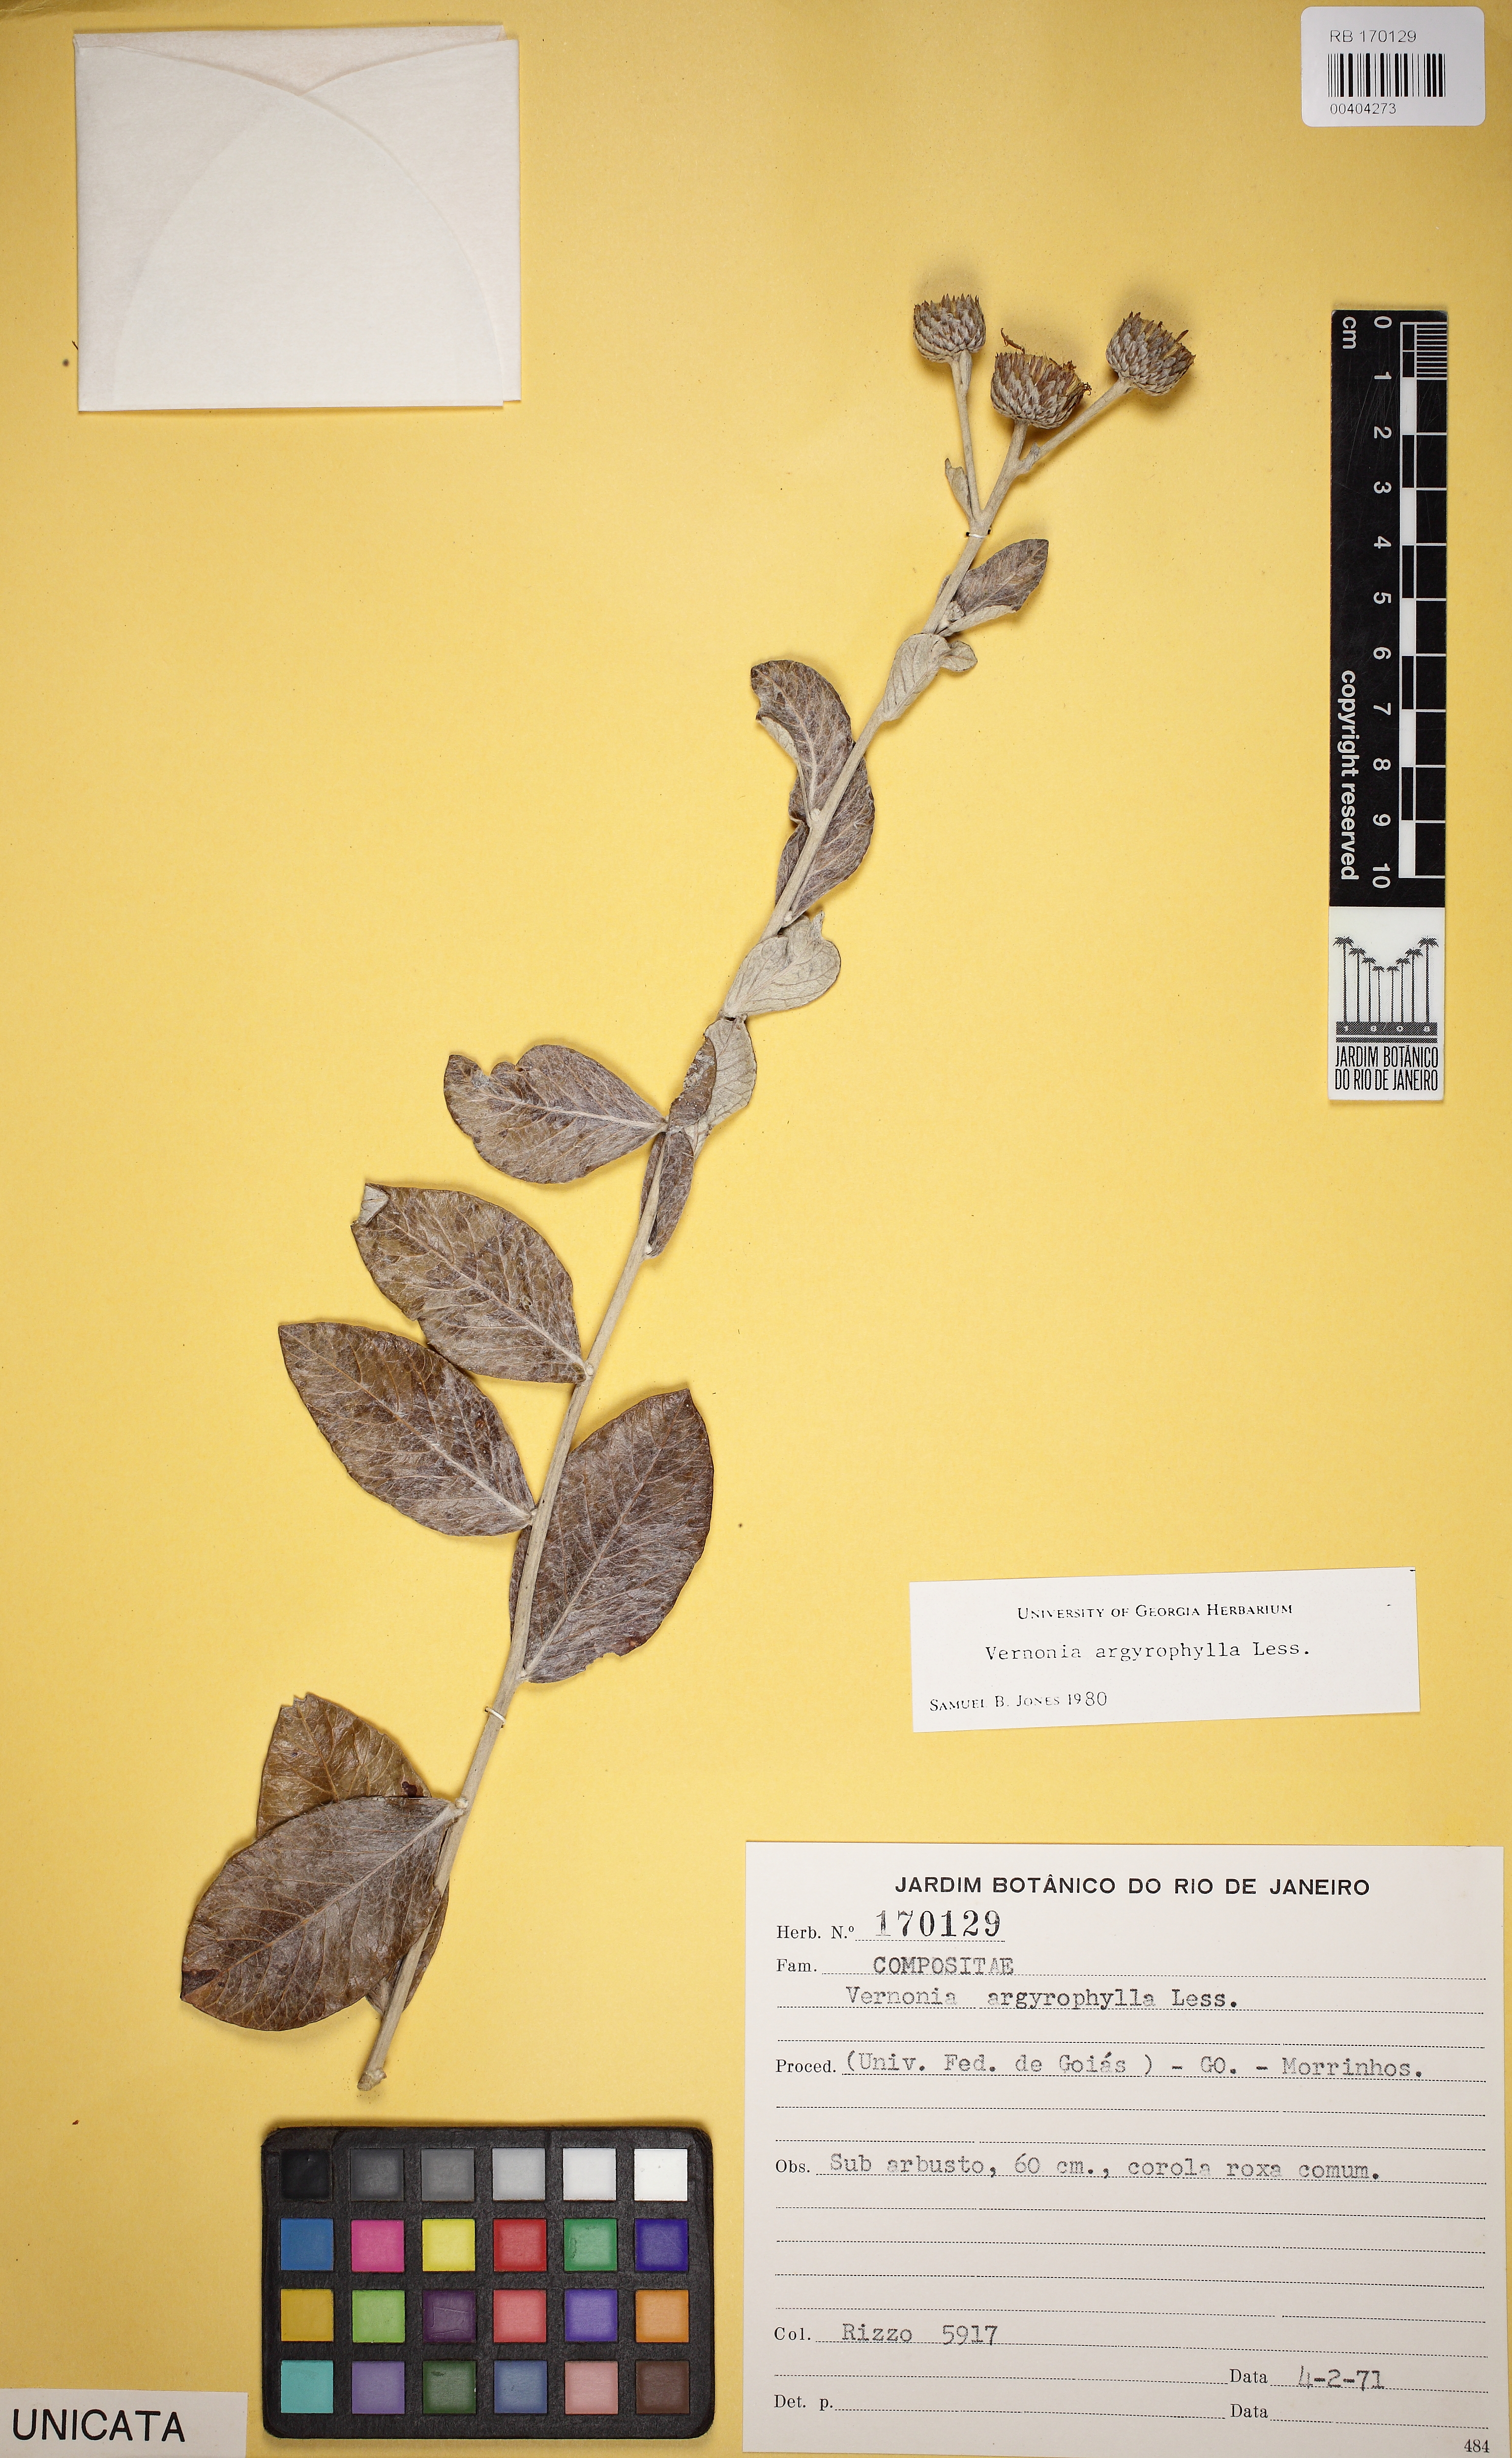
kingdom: Plantae
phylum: Tracheophyta
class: Magnoliopsida
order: Asterales
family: Asteraceae
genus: Lessingianthus
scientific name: Lessingianthus argyrophyllus
